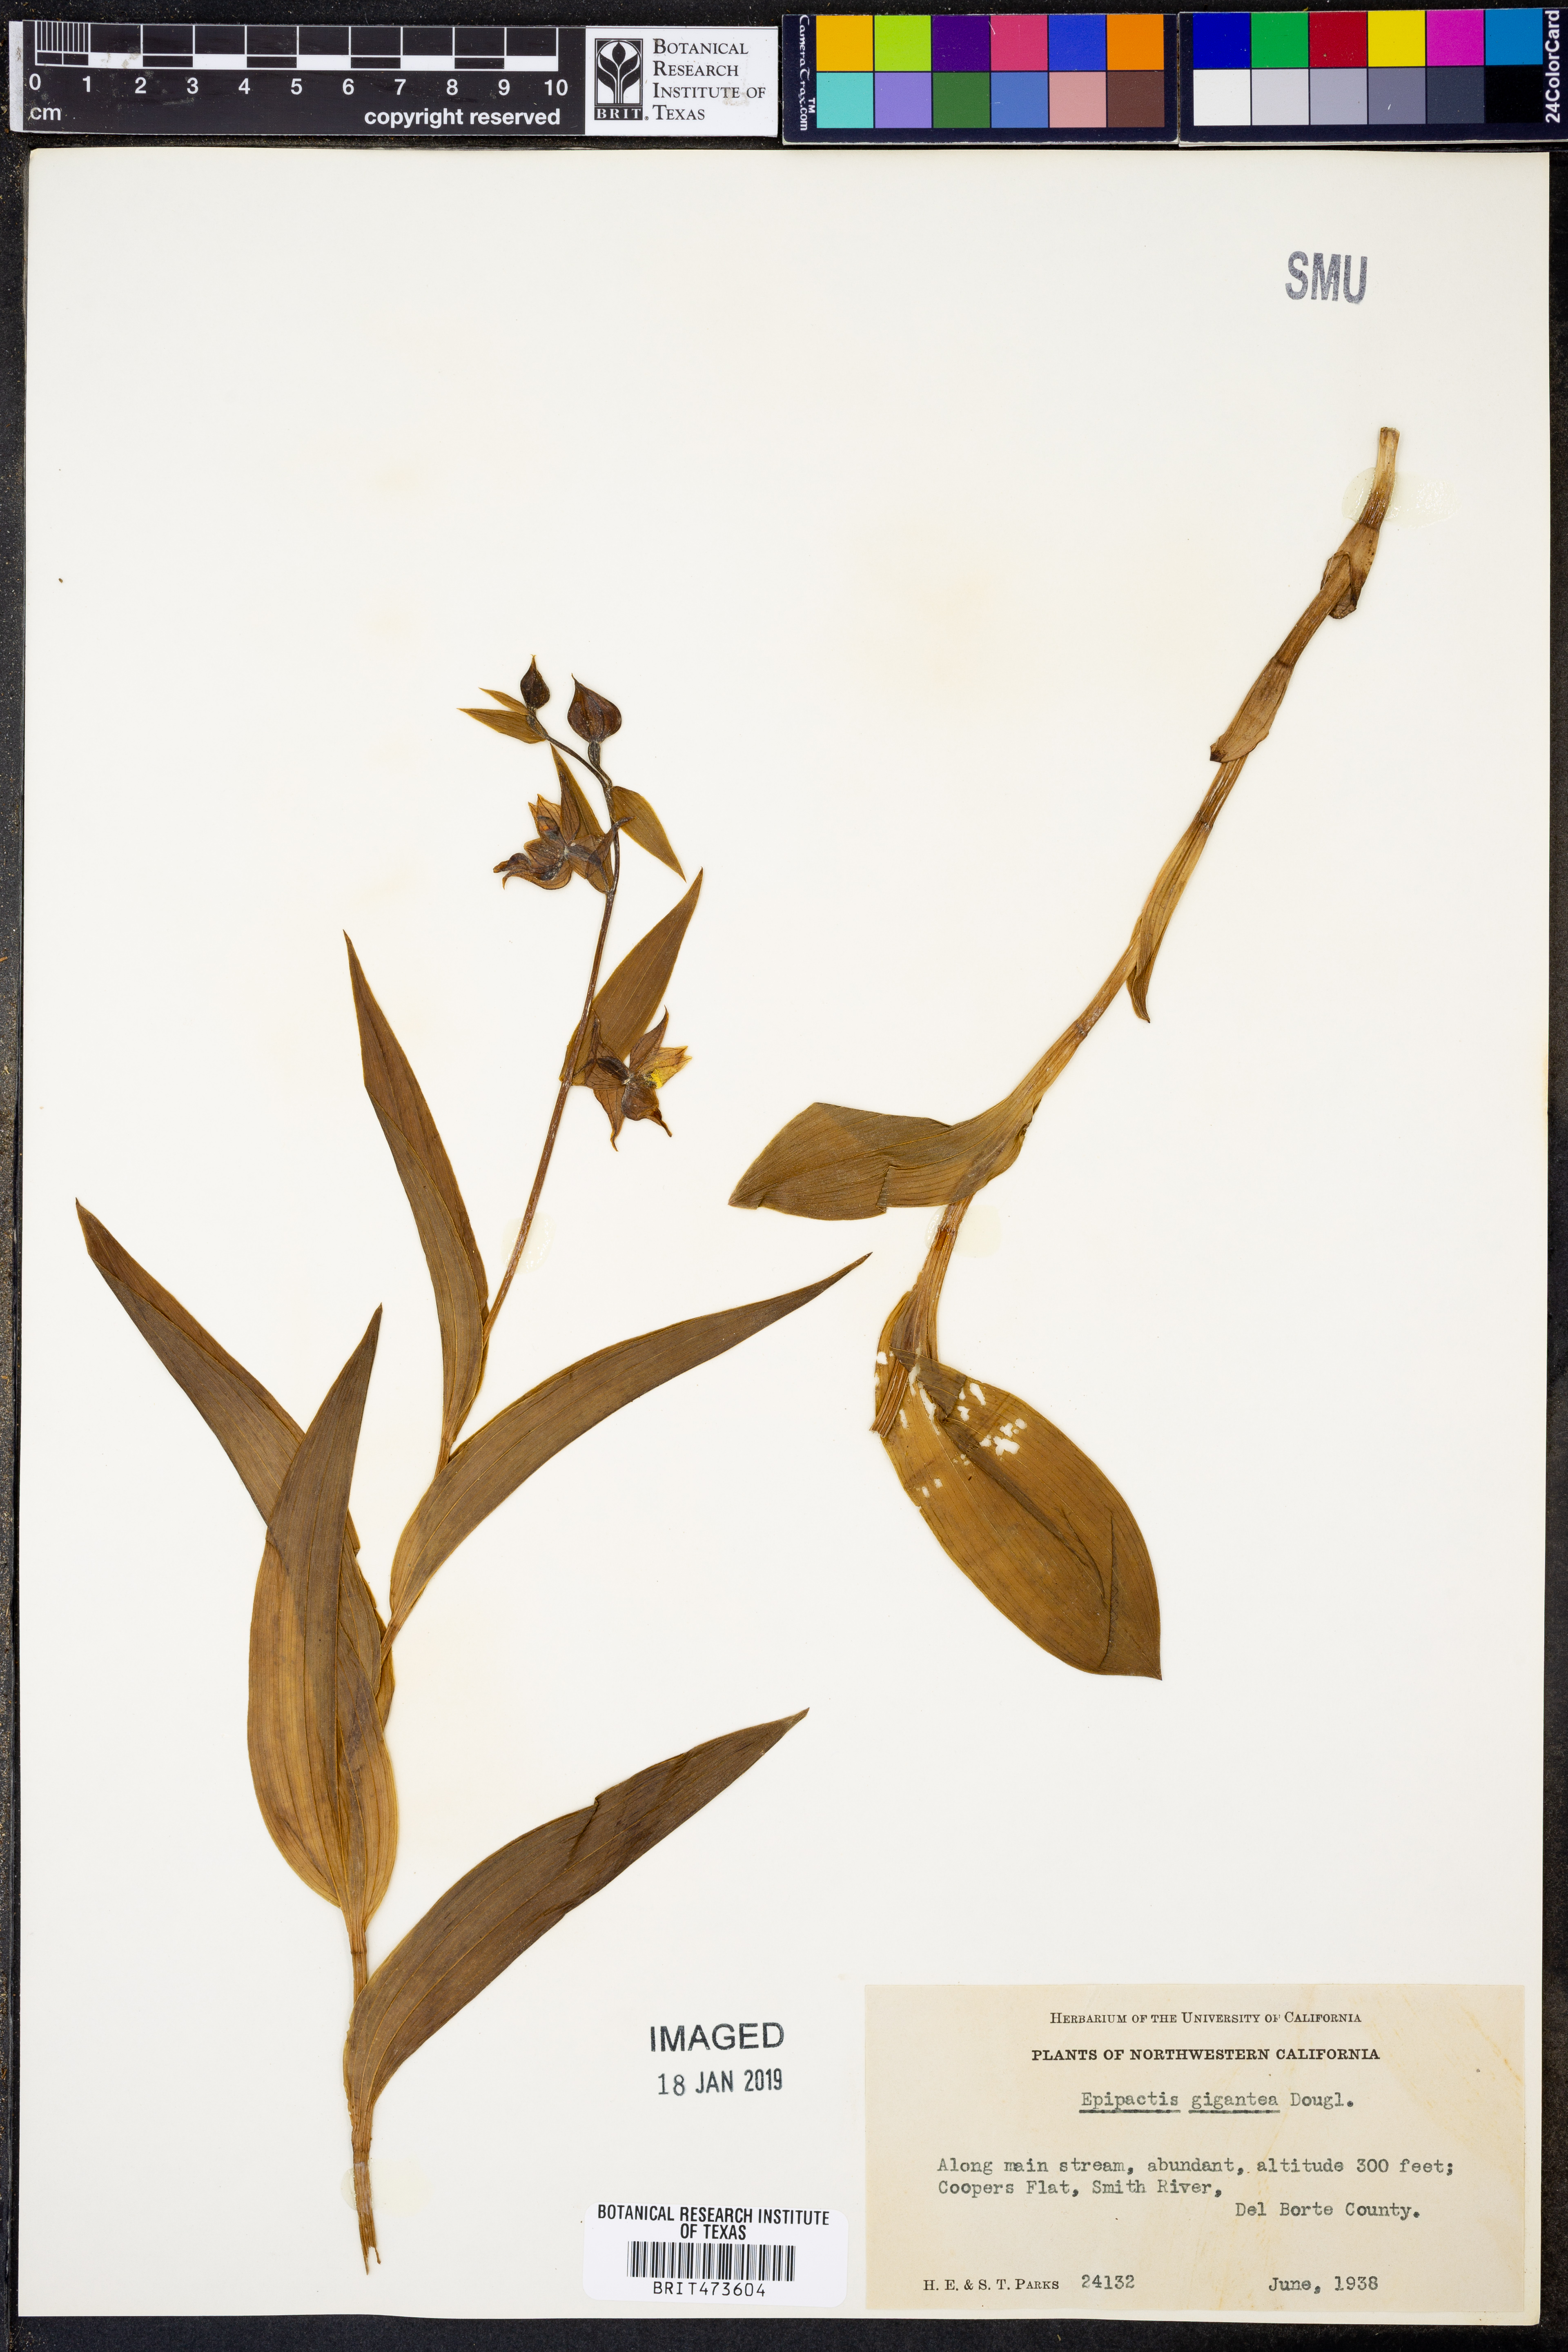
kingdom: Plantae
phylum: Tracheophyta
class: Liliopsida
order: Asparagales
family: Orchidaceae
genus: Epipactis
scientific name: Epipactis gigantea
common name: Chatterbox
